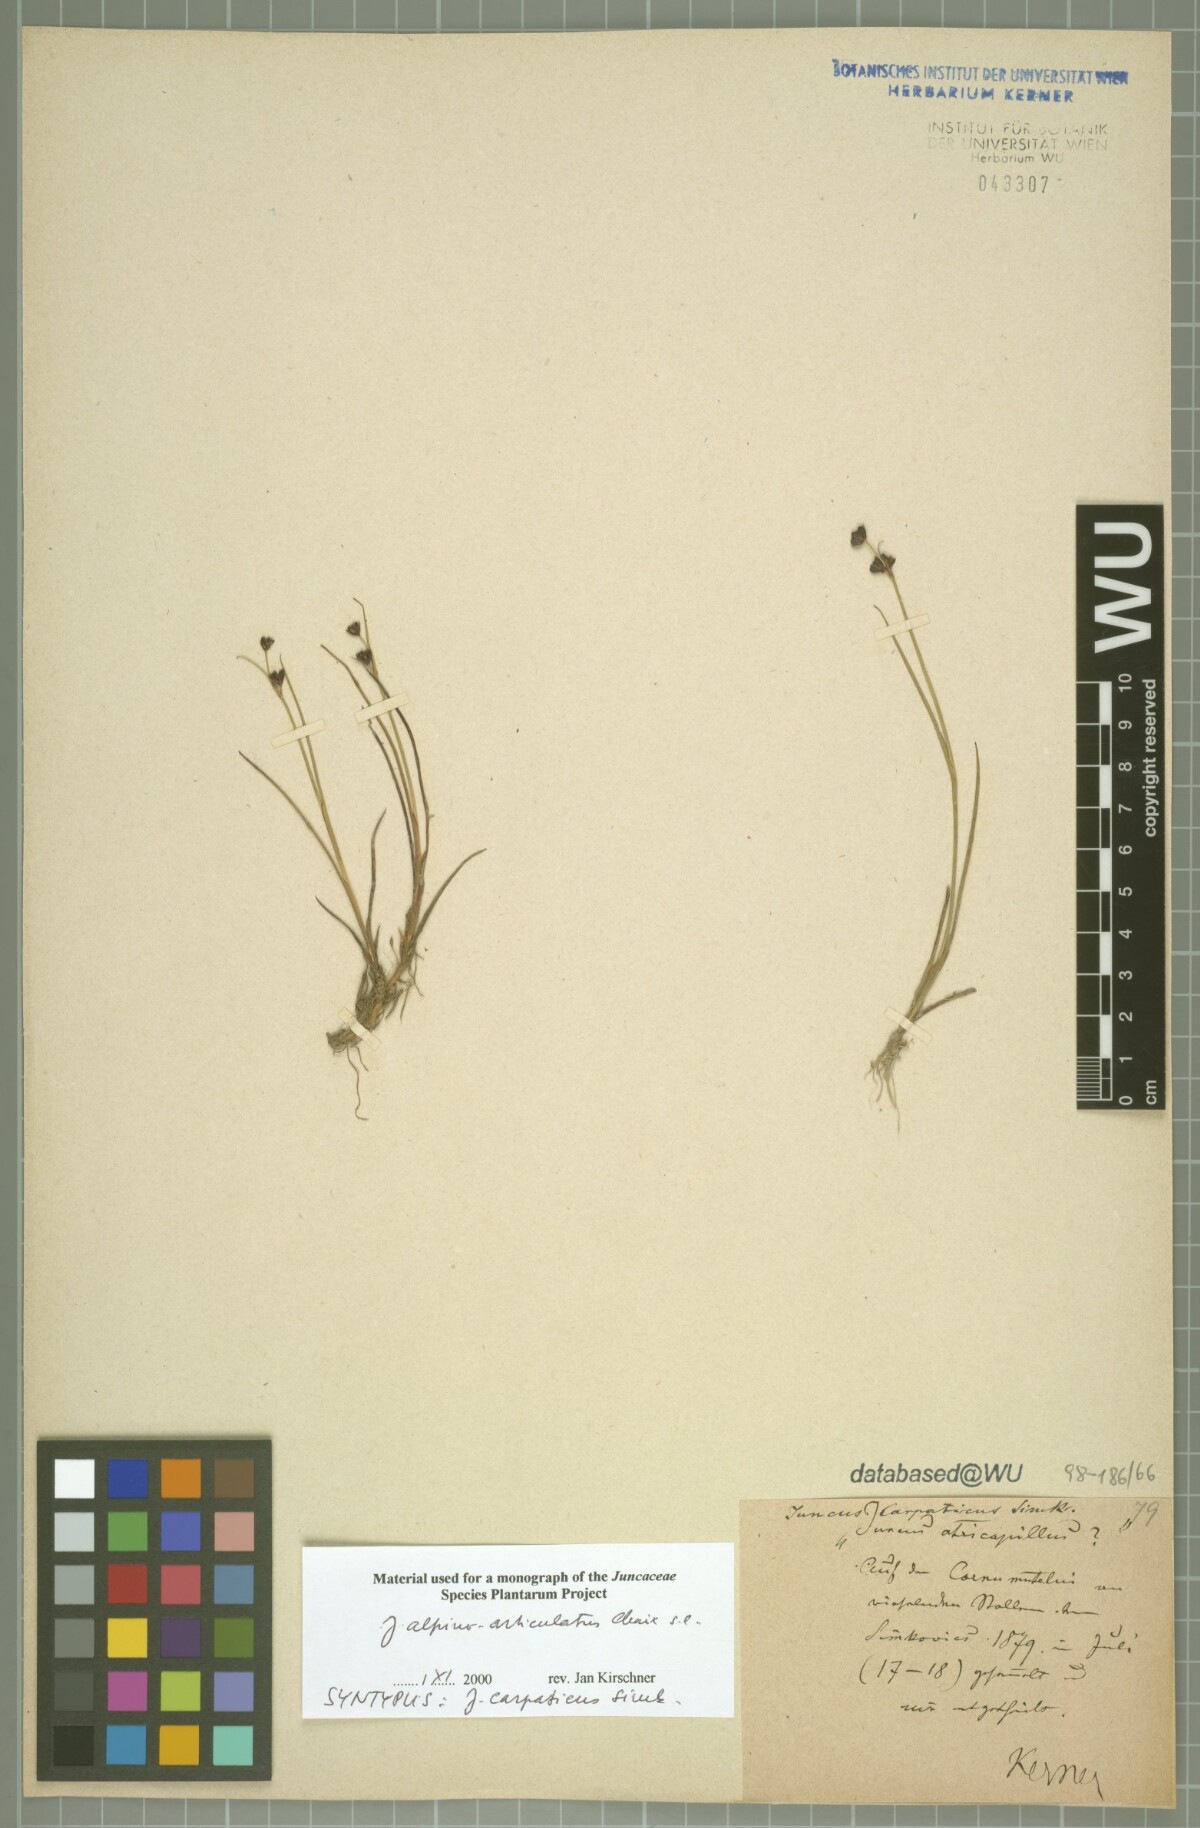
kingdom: Plantae
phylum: Tracheophyta
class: Liliopsida
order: Poales
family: Juncaceae
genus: Juncus
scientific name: Juncus alpinoarticulatus
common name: Alpine rush
